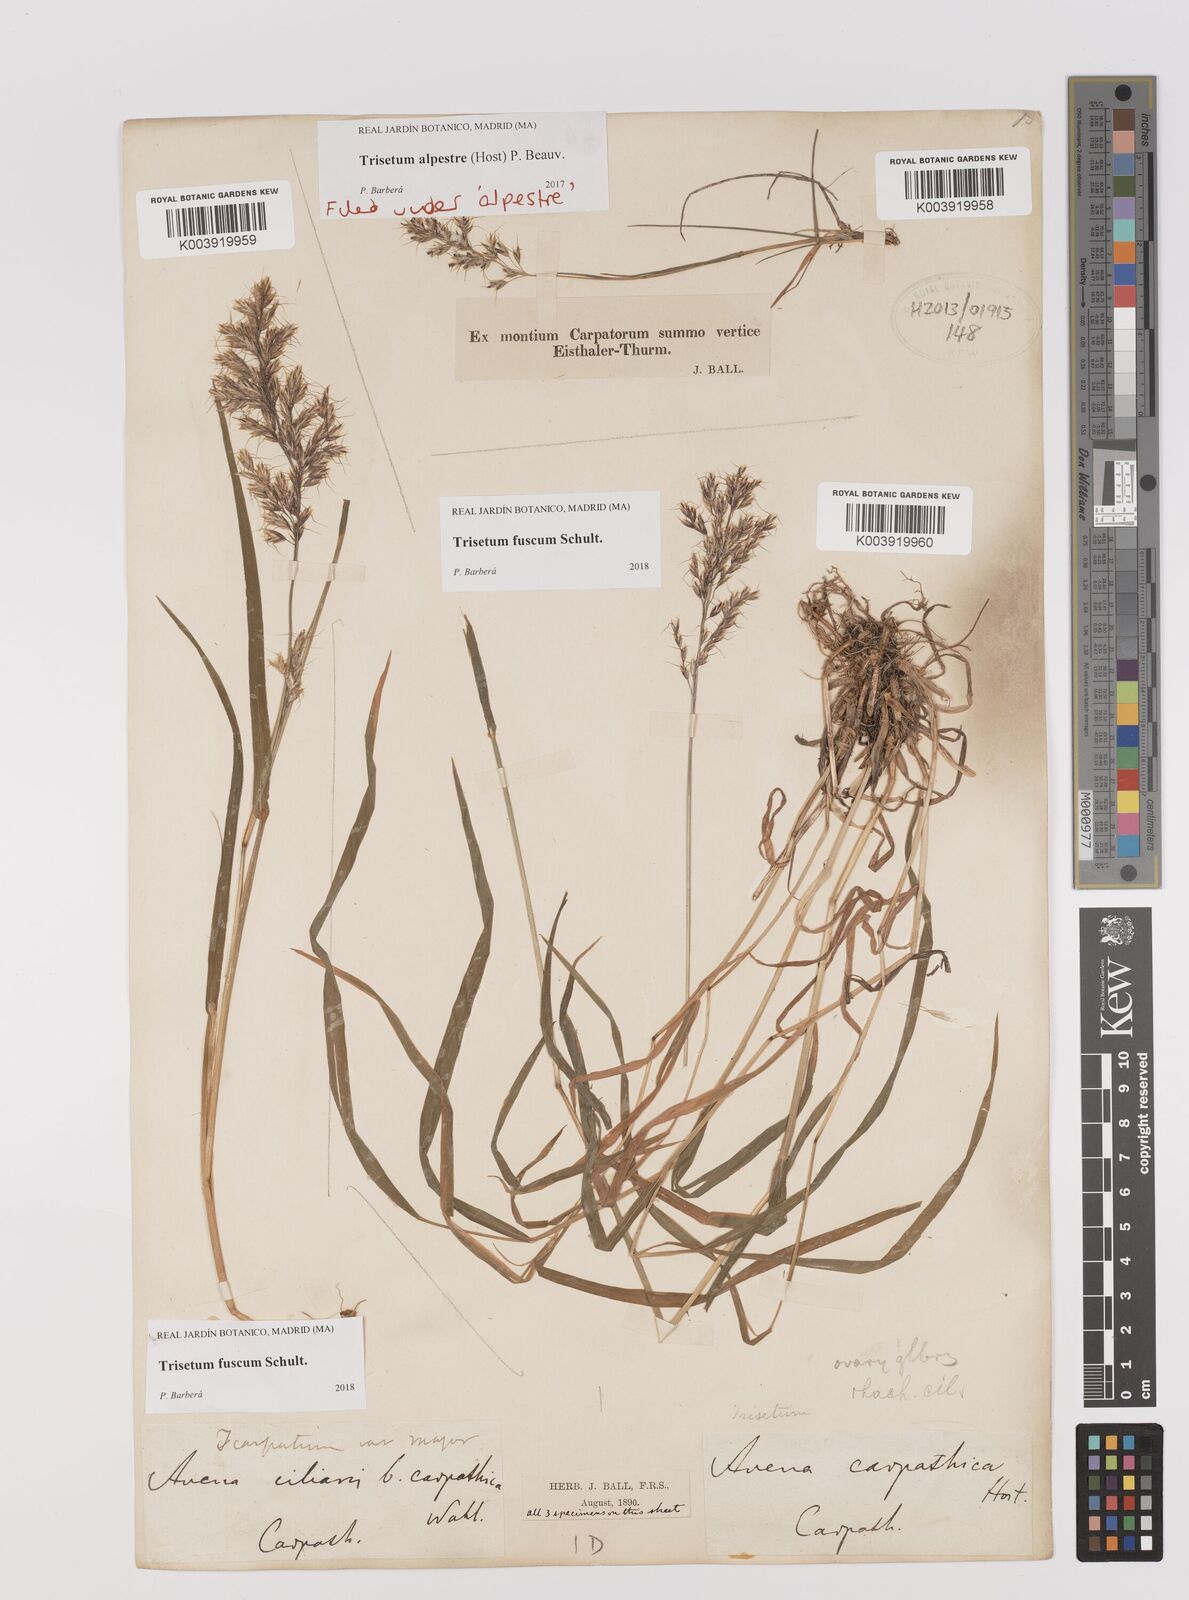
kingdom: Plantae
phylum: Tracheophyta
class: Liliopsida
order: Poales
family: Poaceae
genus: Trisetum
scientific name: Trisetum fuscum
